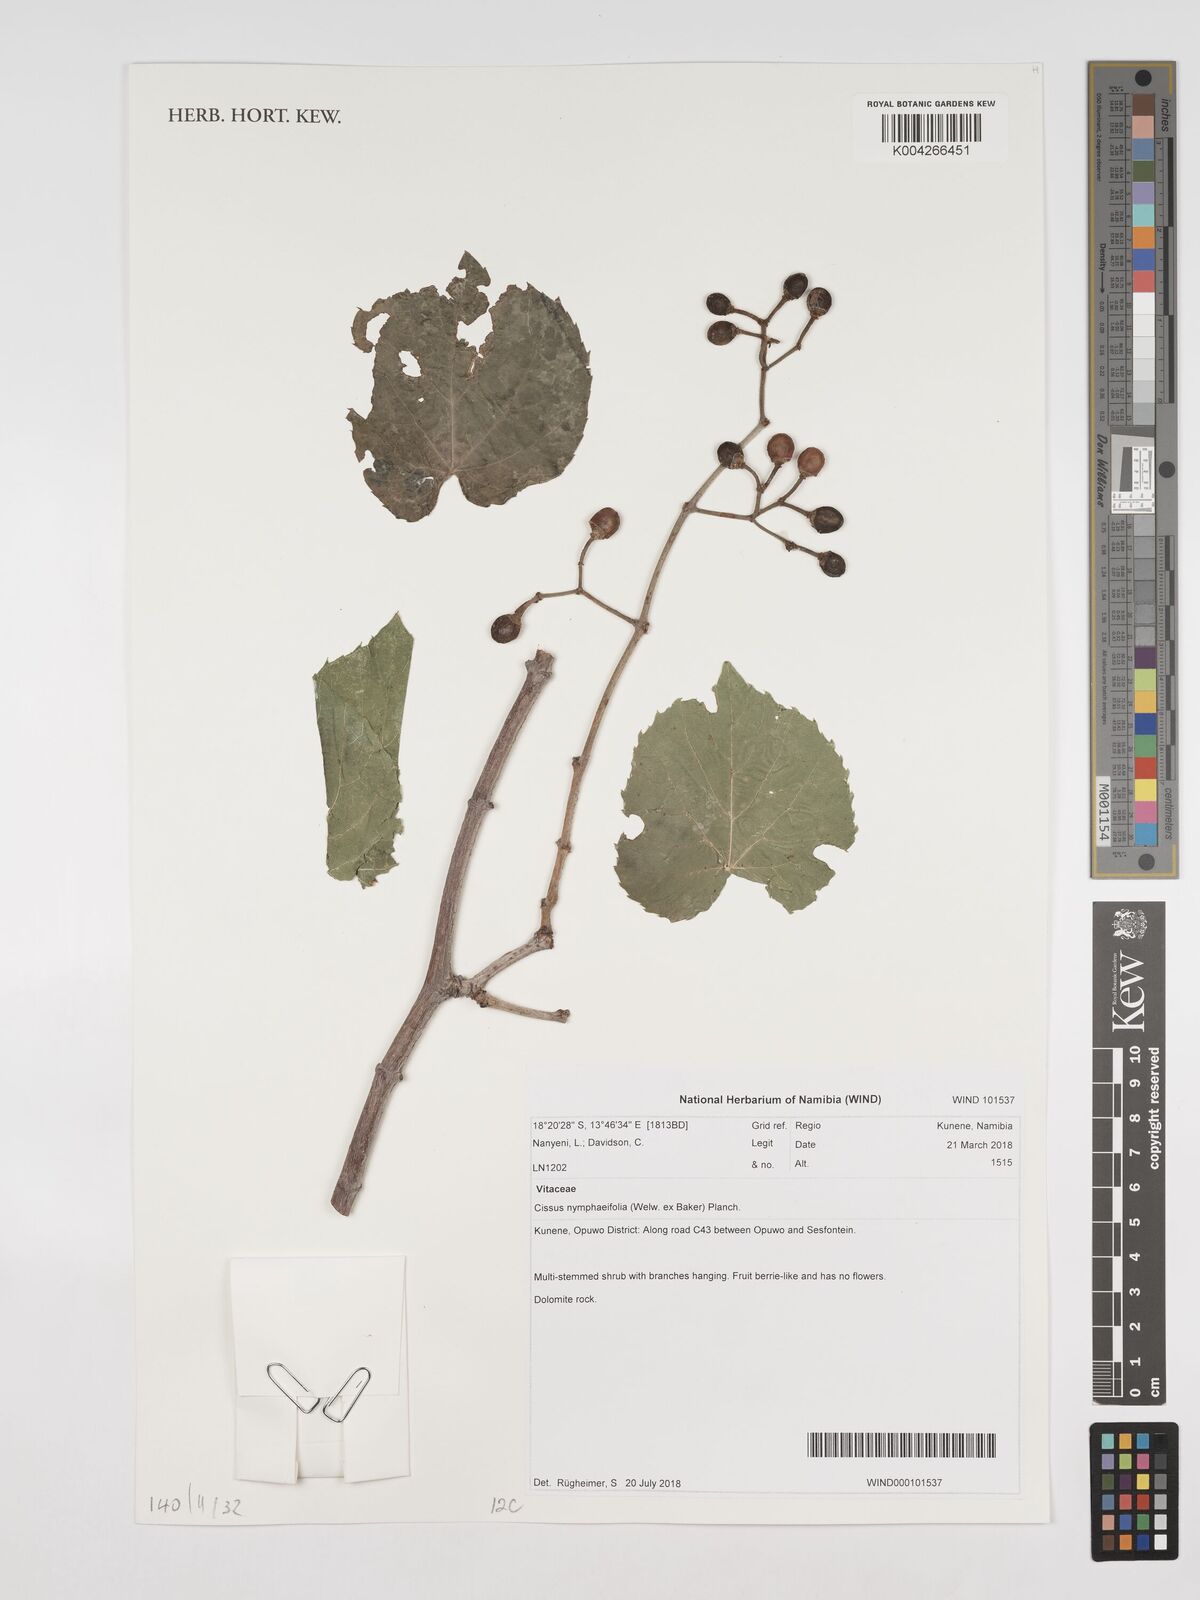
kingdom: Plantae
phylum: Tracheophyta
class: Magnoliopsida
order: Vitales
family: Vitaceae
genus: Cissus
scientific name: Cissus nymphaeifolia
